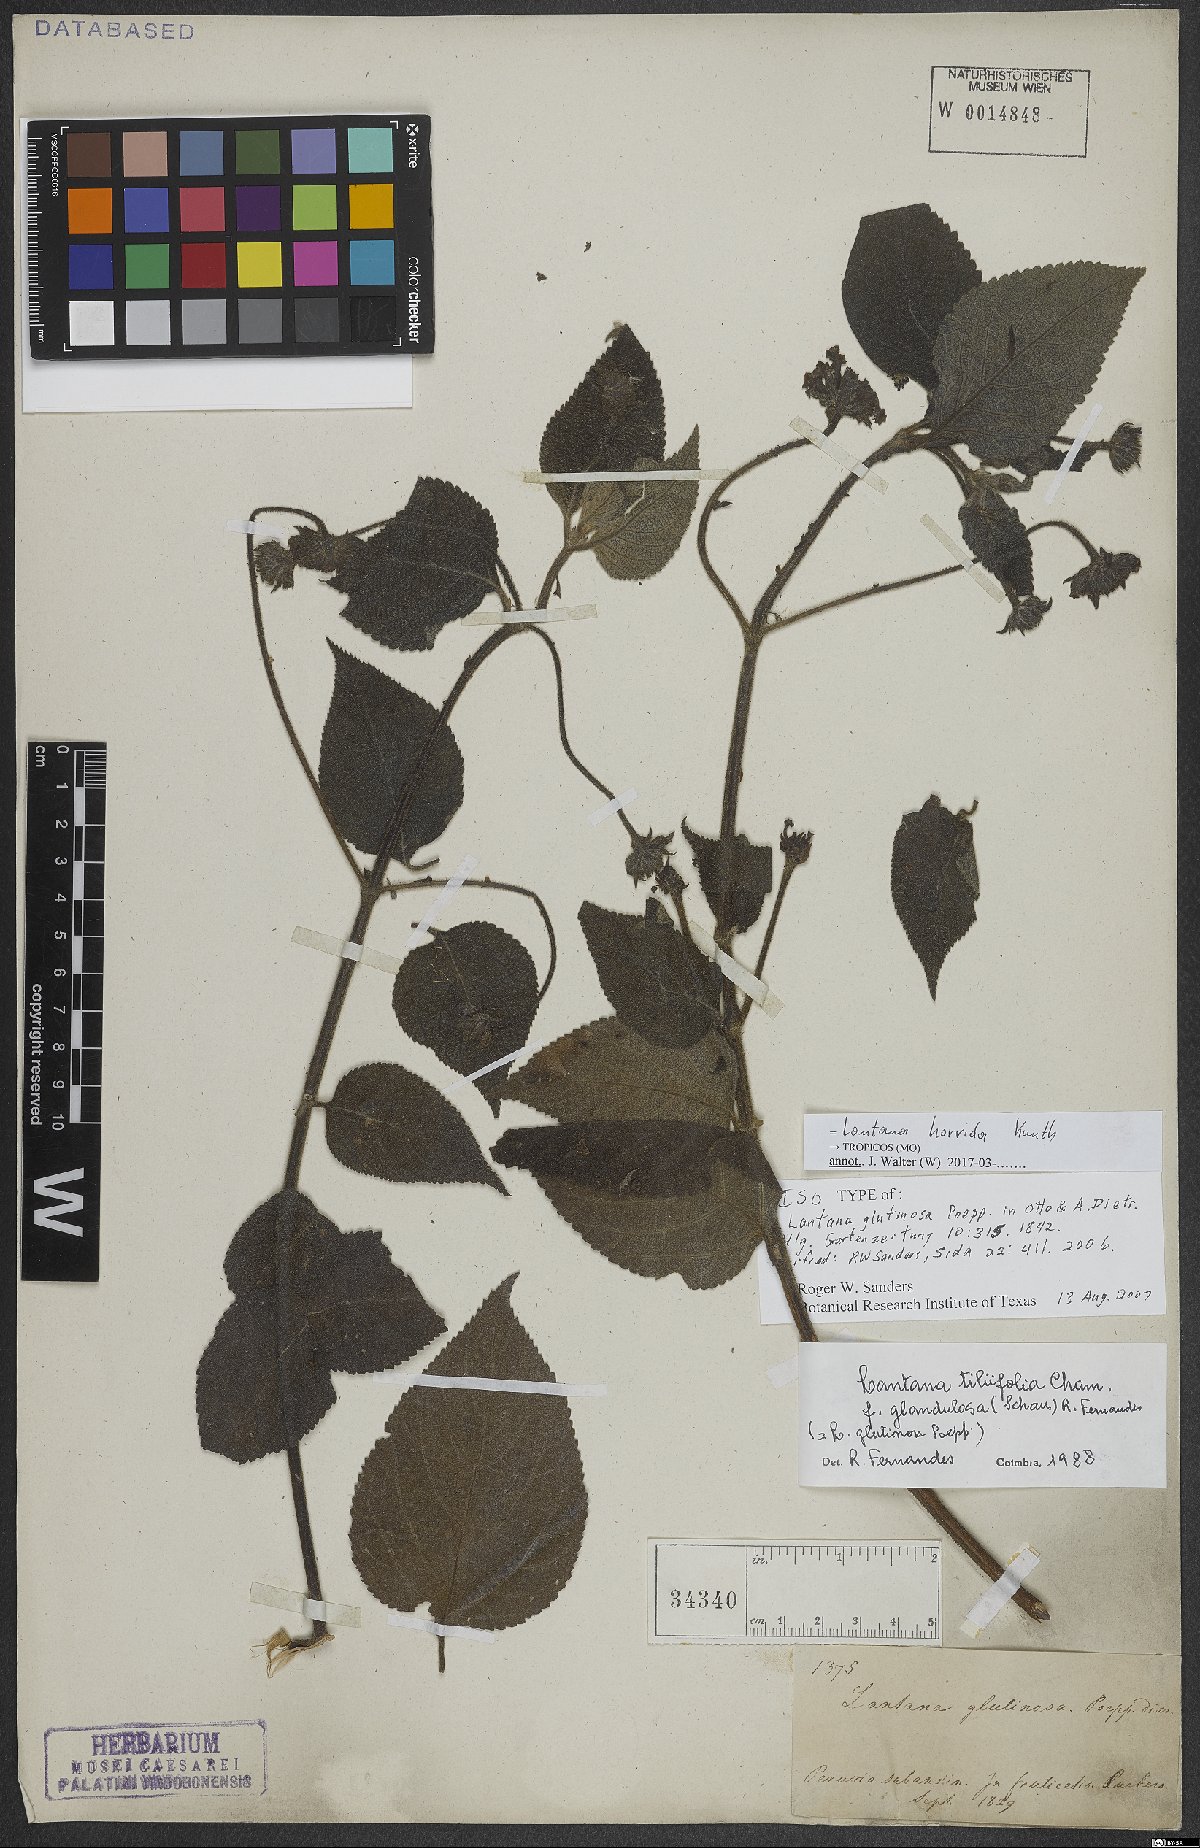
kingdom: Plantae
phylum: Tracheophyta
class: Magnoliopsida
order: Lamiales
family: Verbenaceae
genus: Lantana
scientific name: Lantana horrida
